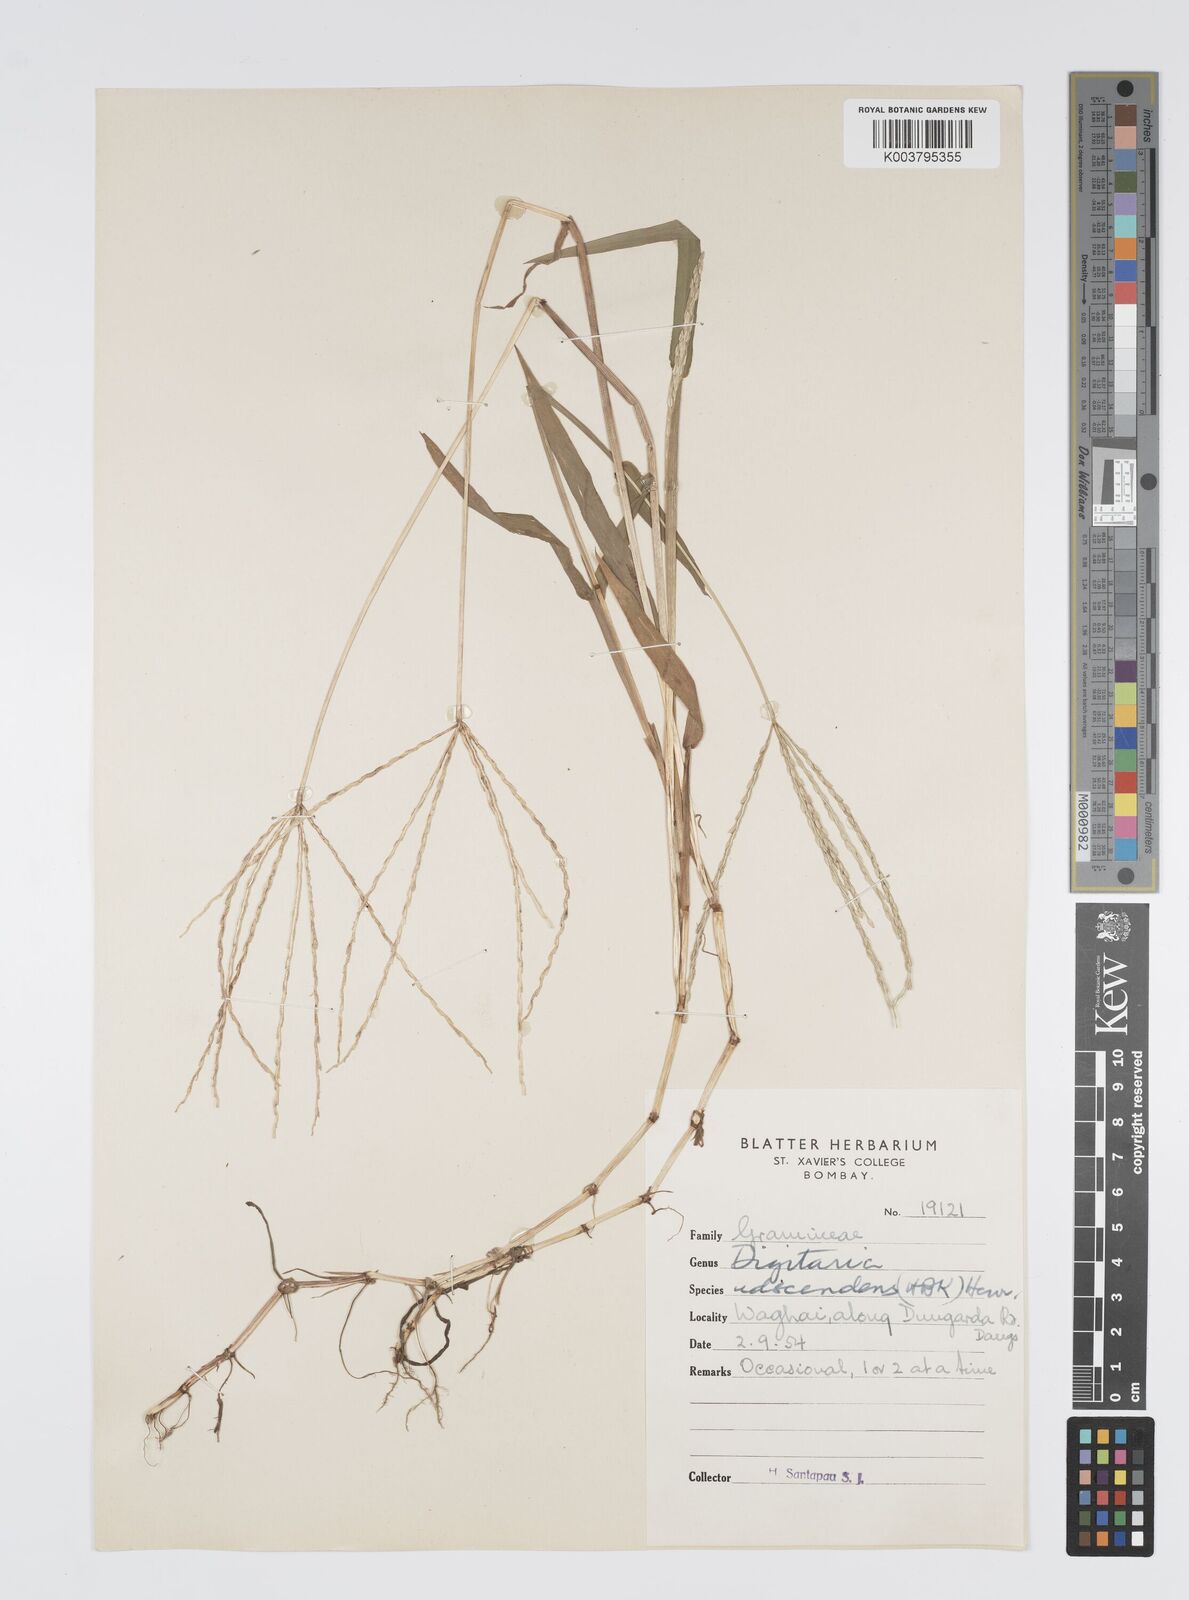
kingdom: Plantae
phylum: Tracheophyta
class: Liliopsida
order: Poales
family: Poaceae
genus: Digitaria
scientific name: Digitaria ciliaris
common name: Tropical finger-grass
